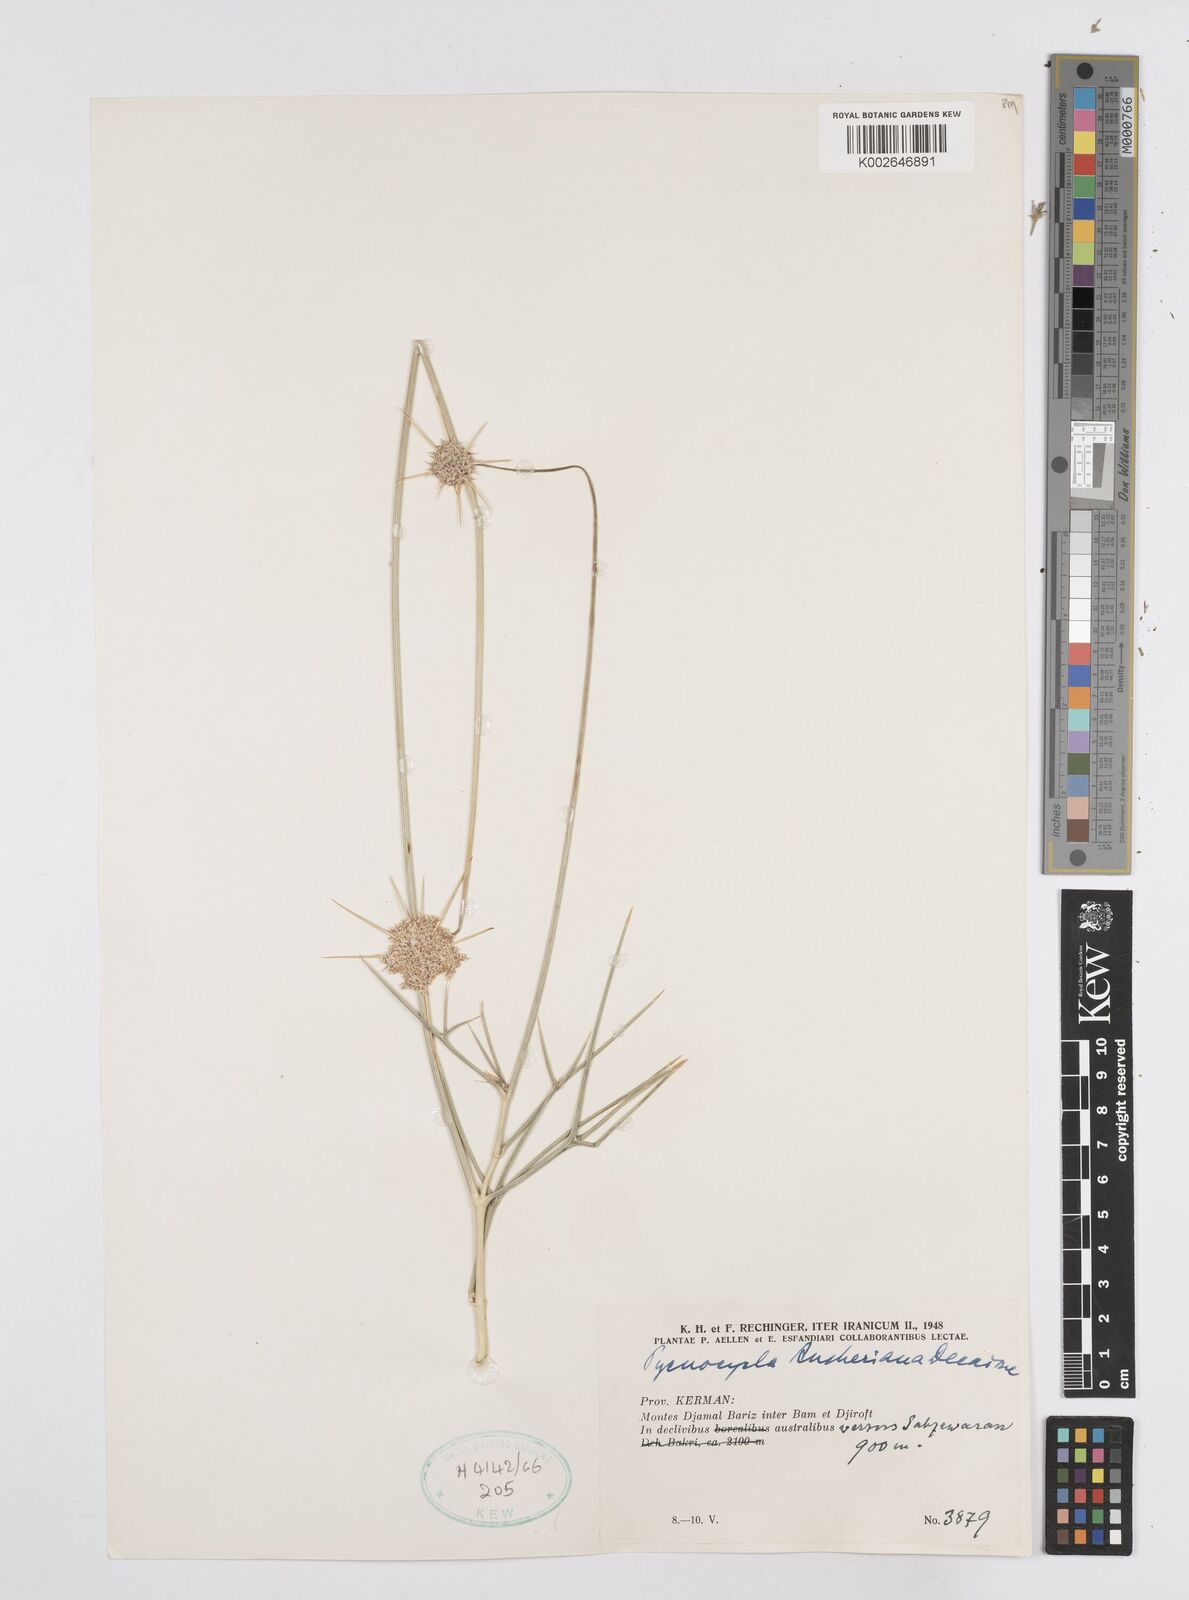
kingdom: Plantae
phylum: Tracheophyta
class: Magnoliopsida
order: Apiales
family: Apiaceae
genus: Pycnocycla
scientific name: Pycnocycla aucheriana
